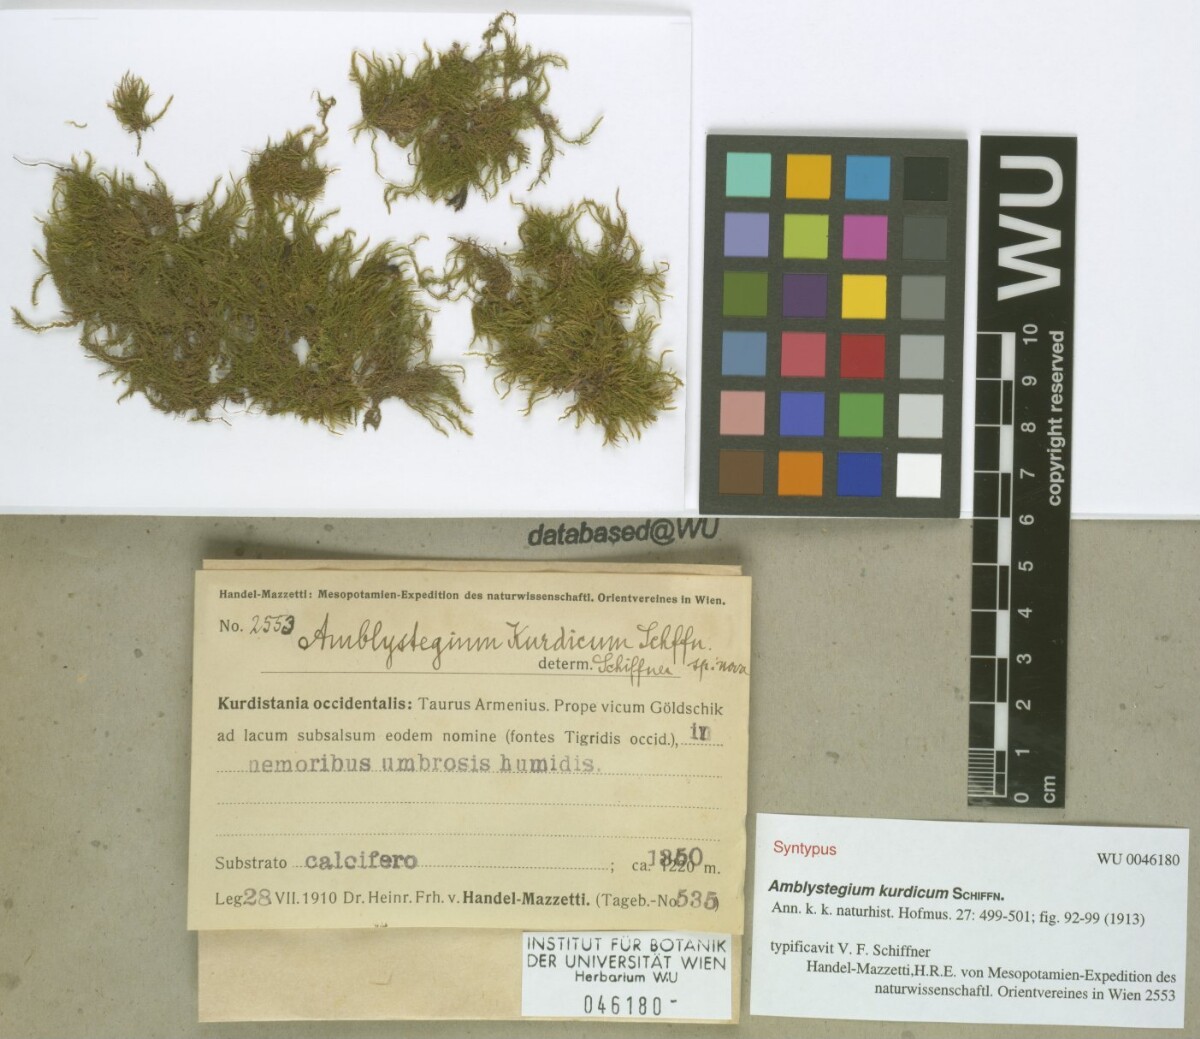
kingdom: Plantae
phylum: Bryophyta
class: Bryopsida
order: Hypnales
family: Amblystegiaceae
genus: Leptodictyum
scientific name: Leptodictyum kurdicum
